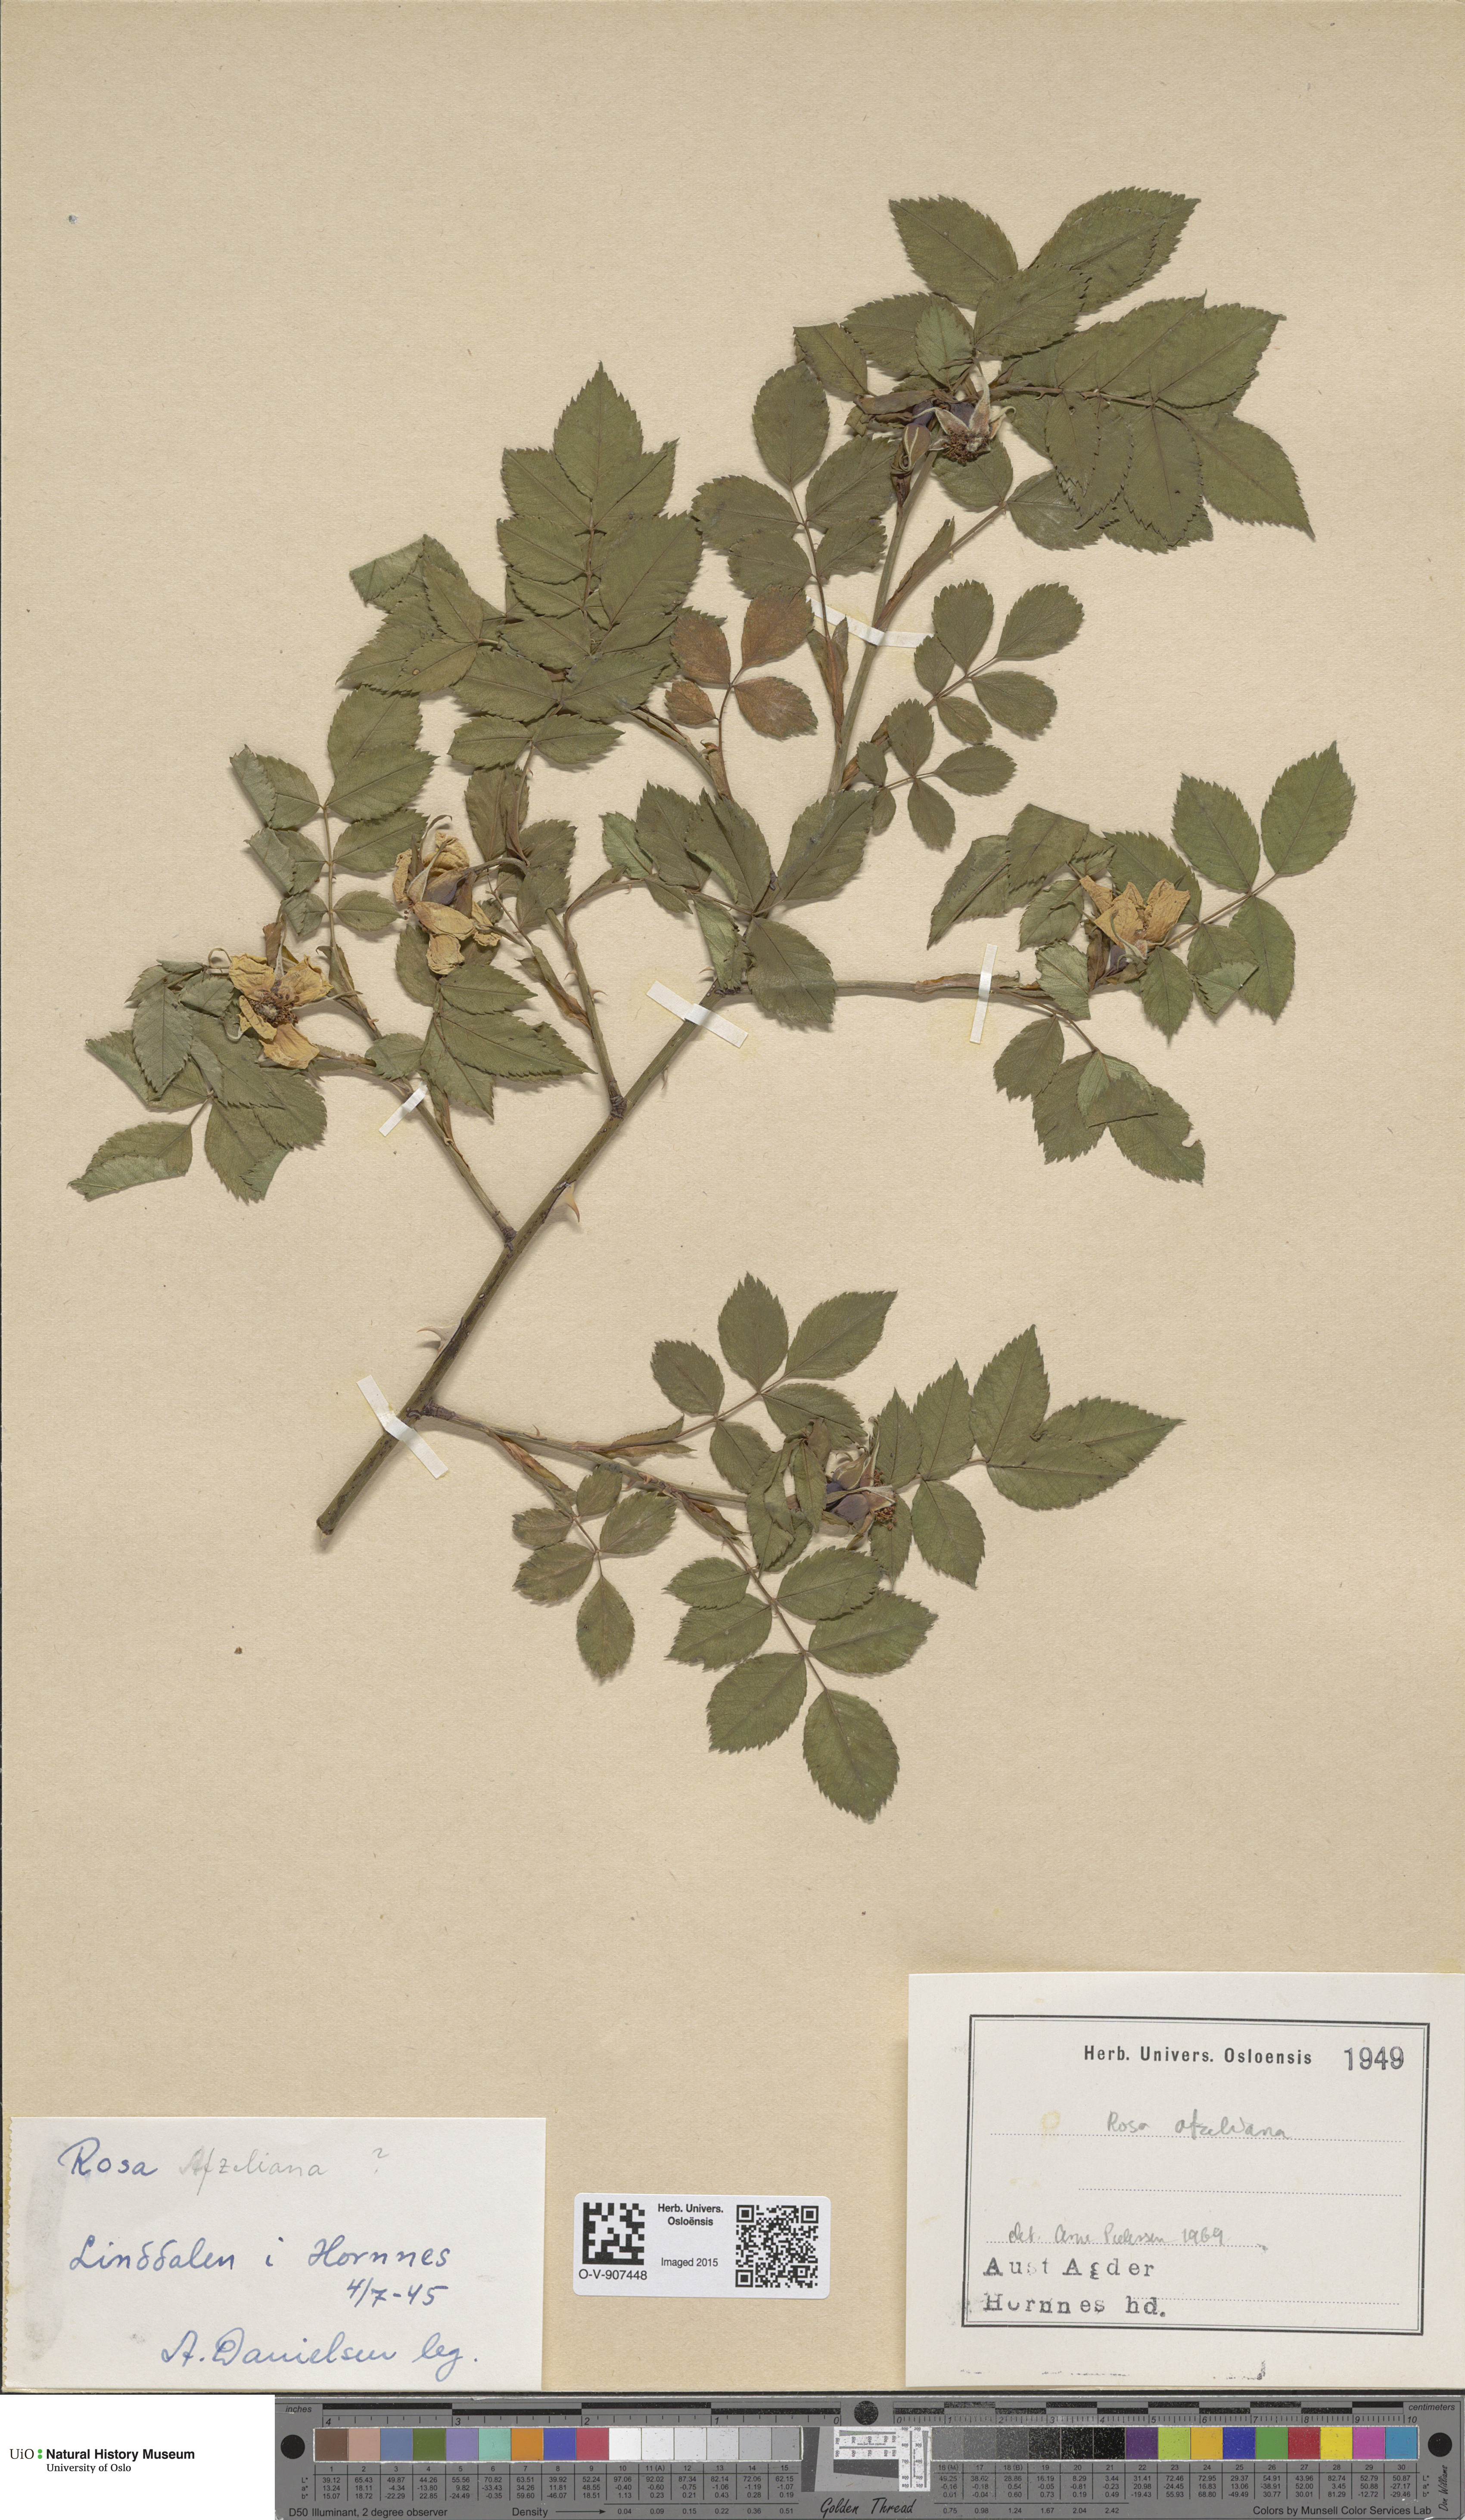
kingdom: Plantae
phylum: Tracheophyta
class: Magnoliopsida
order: Rosales
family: Rosaceae
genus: Rosa
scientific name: Rosa
